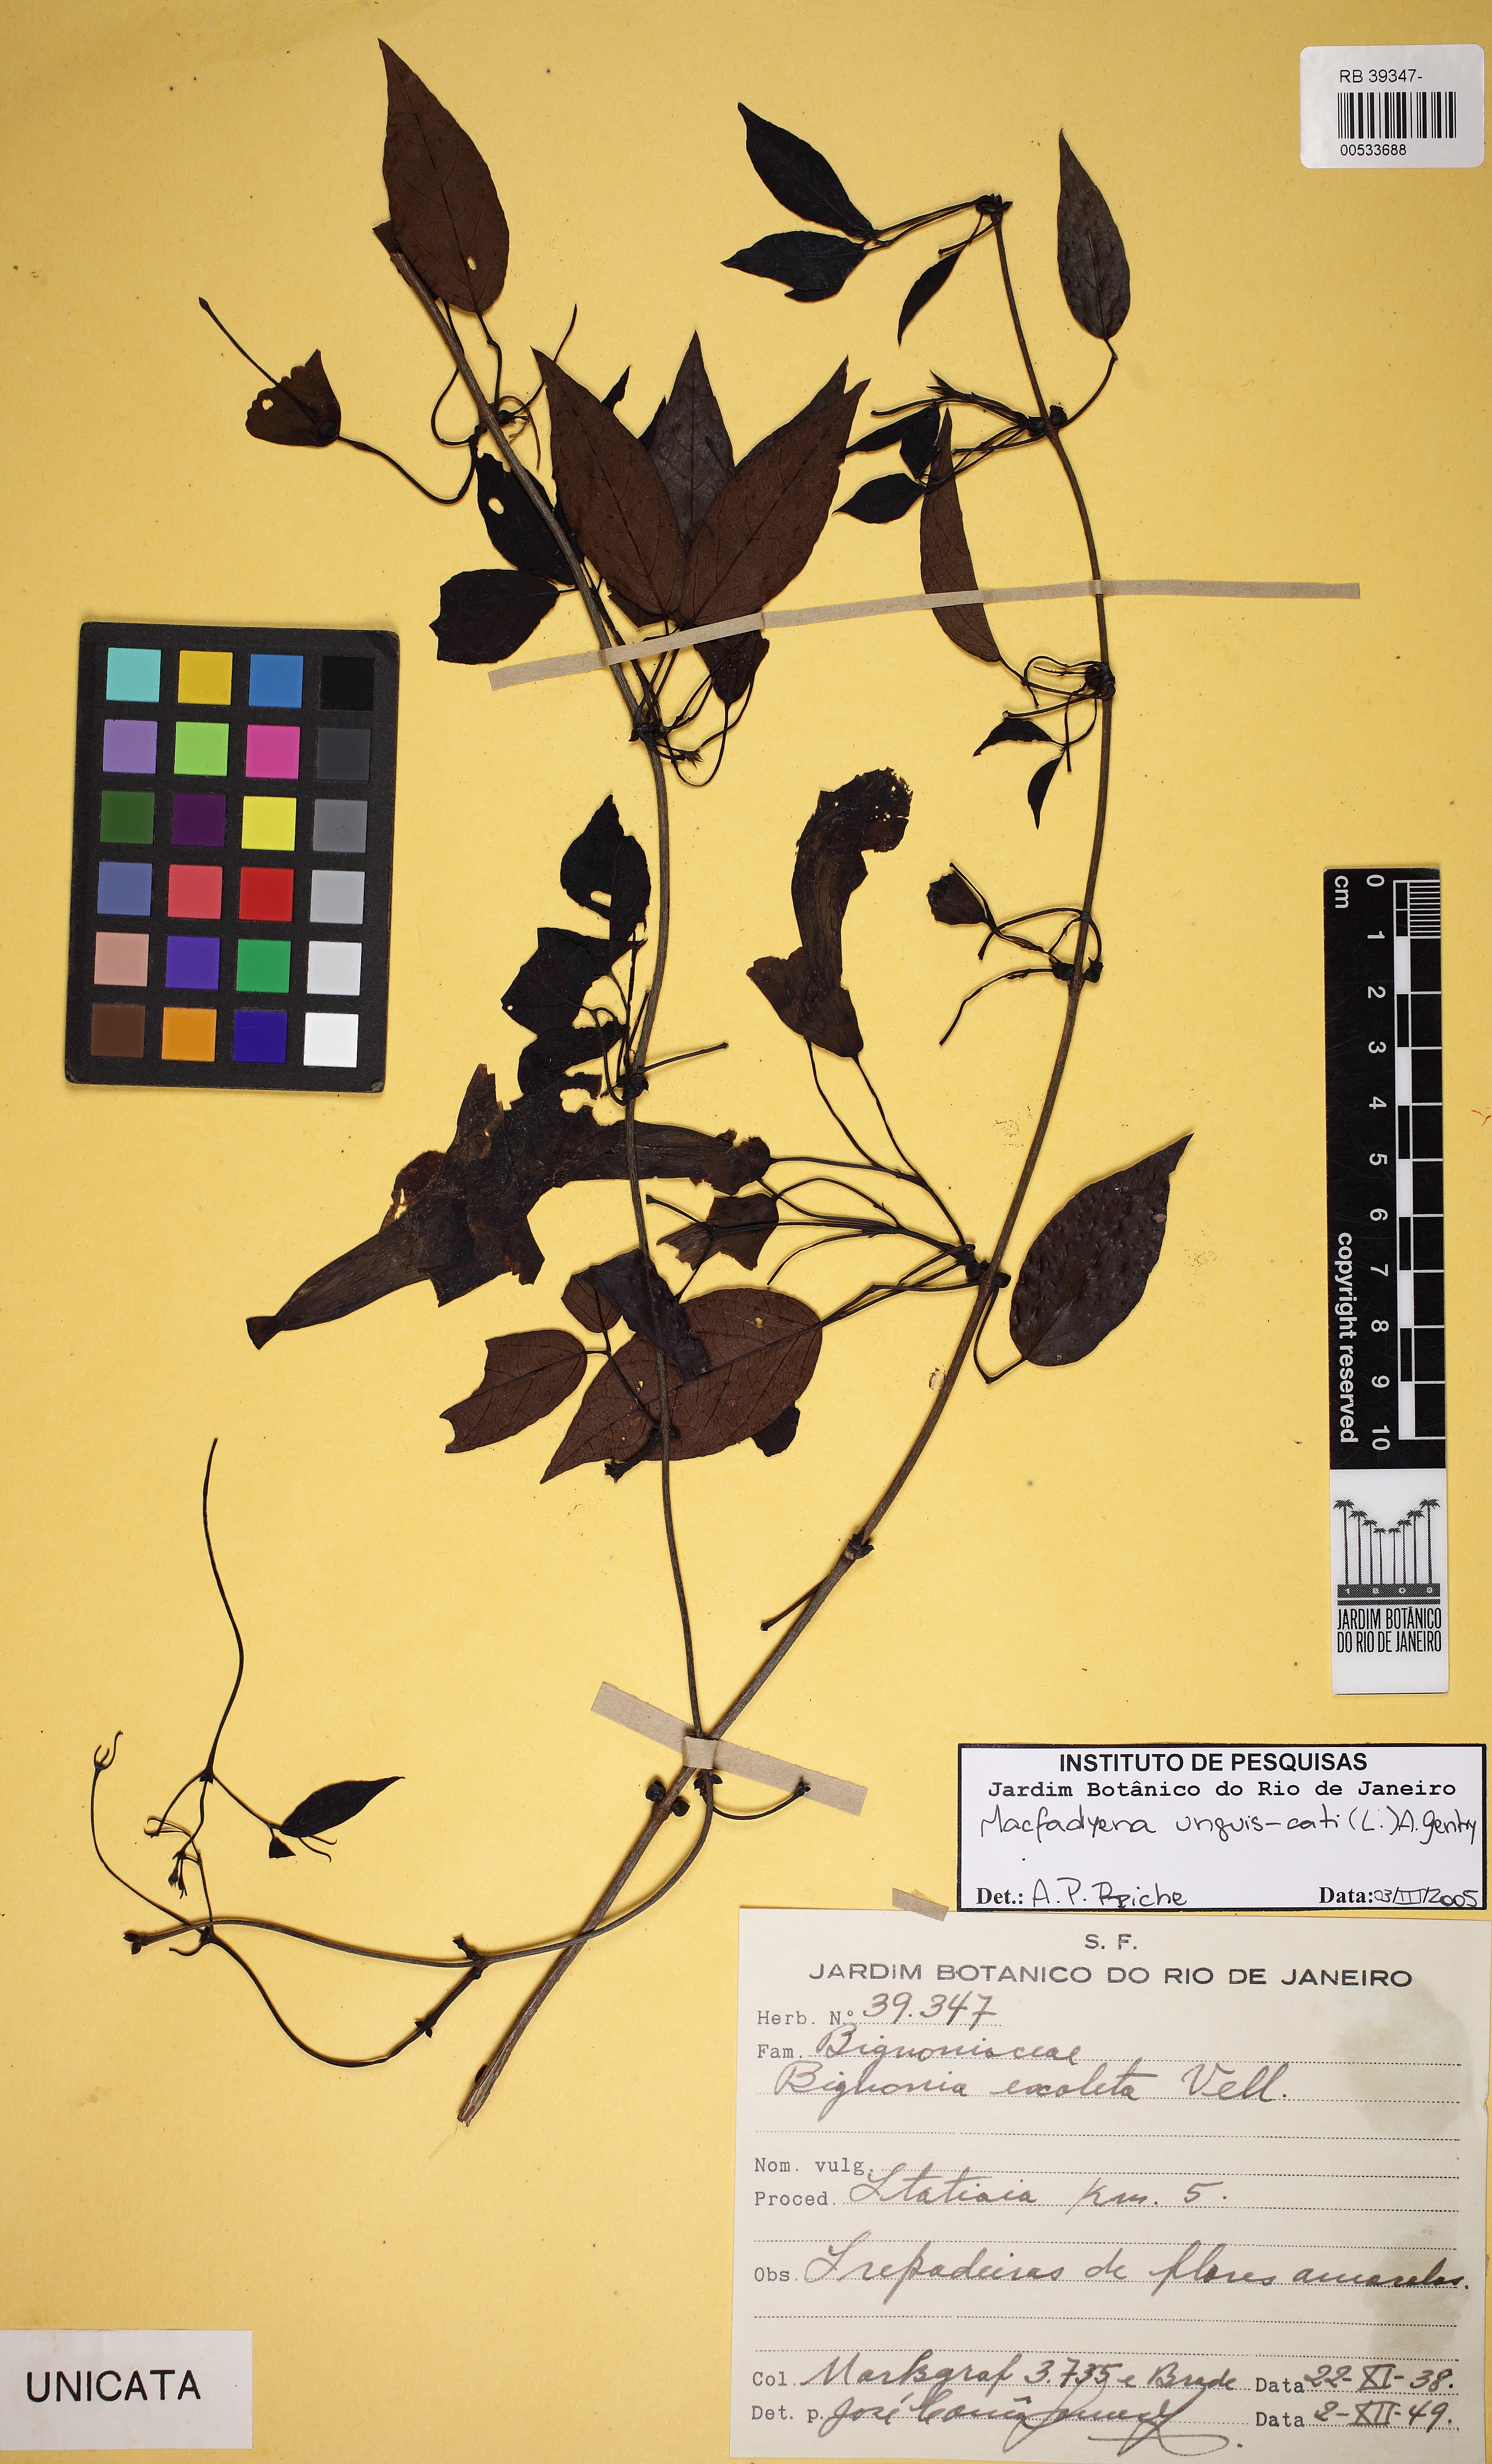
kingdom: Plantae
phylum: Tracheophyta
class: Magnoliopsida
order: Lamiales
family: Bignoniaceae
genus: Dolichandra
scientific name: Dolichandra unguis-cati
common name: Catclaw vine
